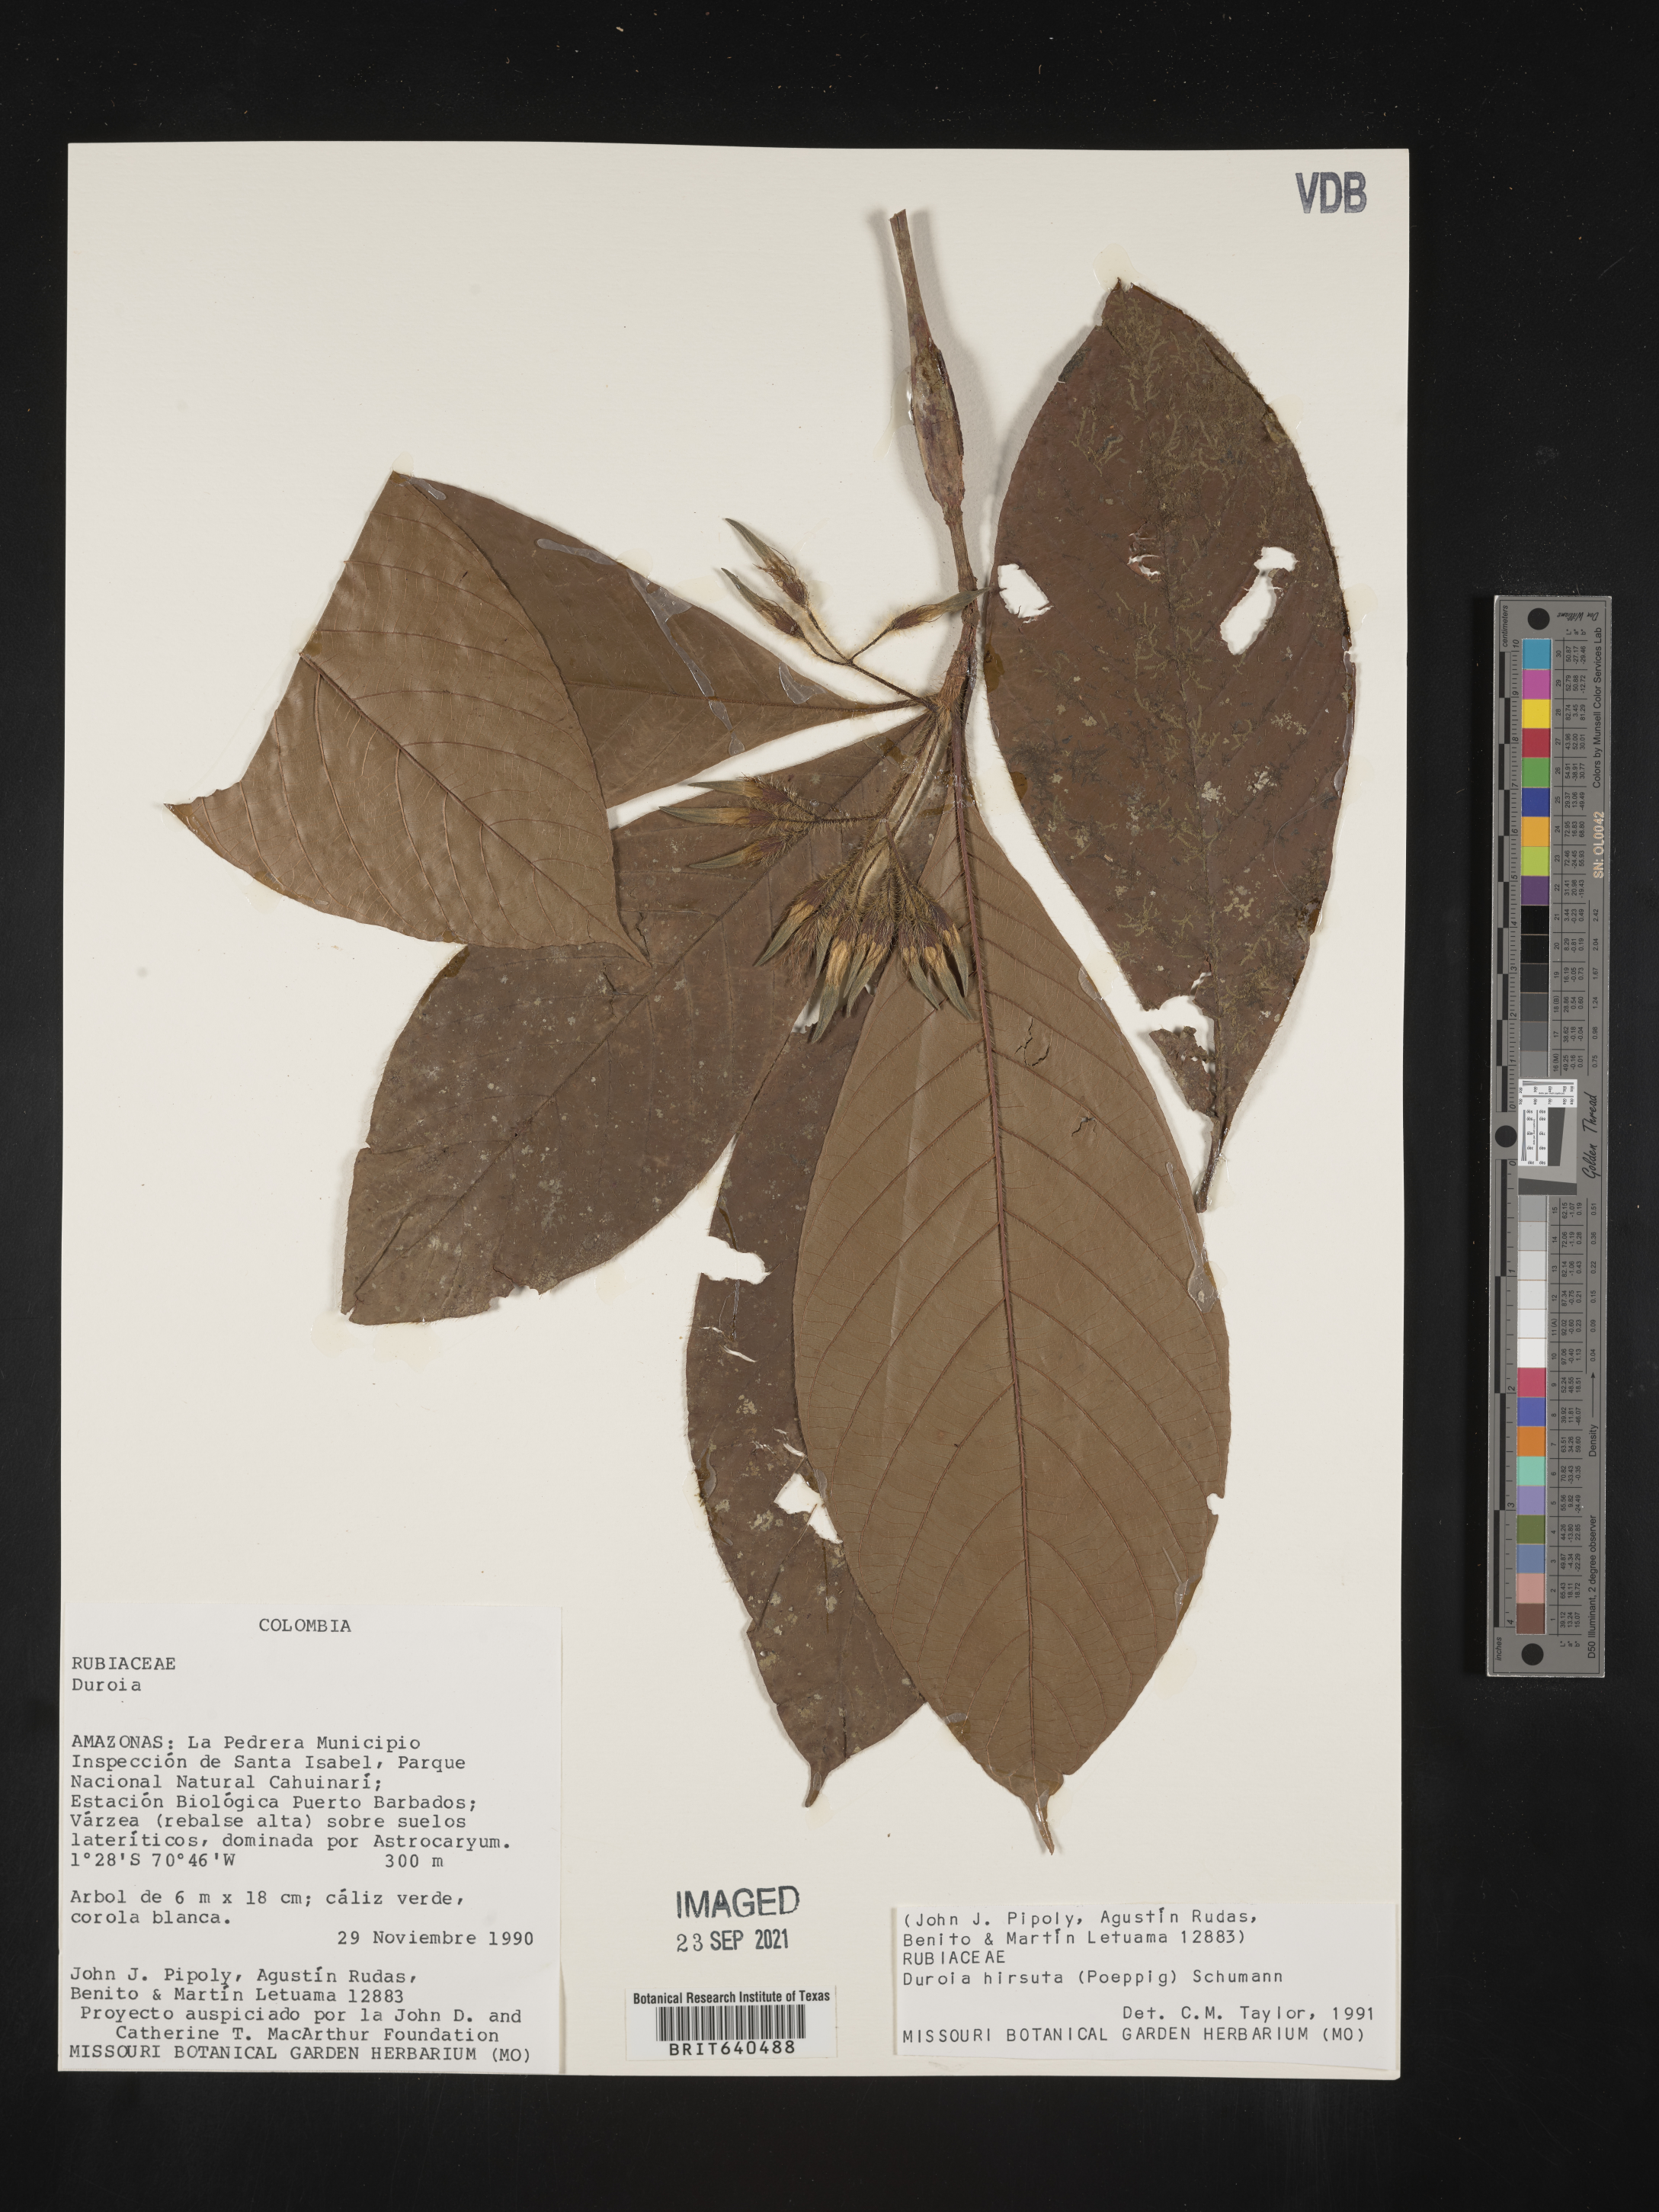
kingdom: Plantae
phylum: Tracheophyta
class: Magnoliopsida
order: Gentianales
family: Rubiaceae
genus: Duroia
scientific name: Duroia
